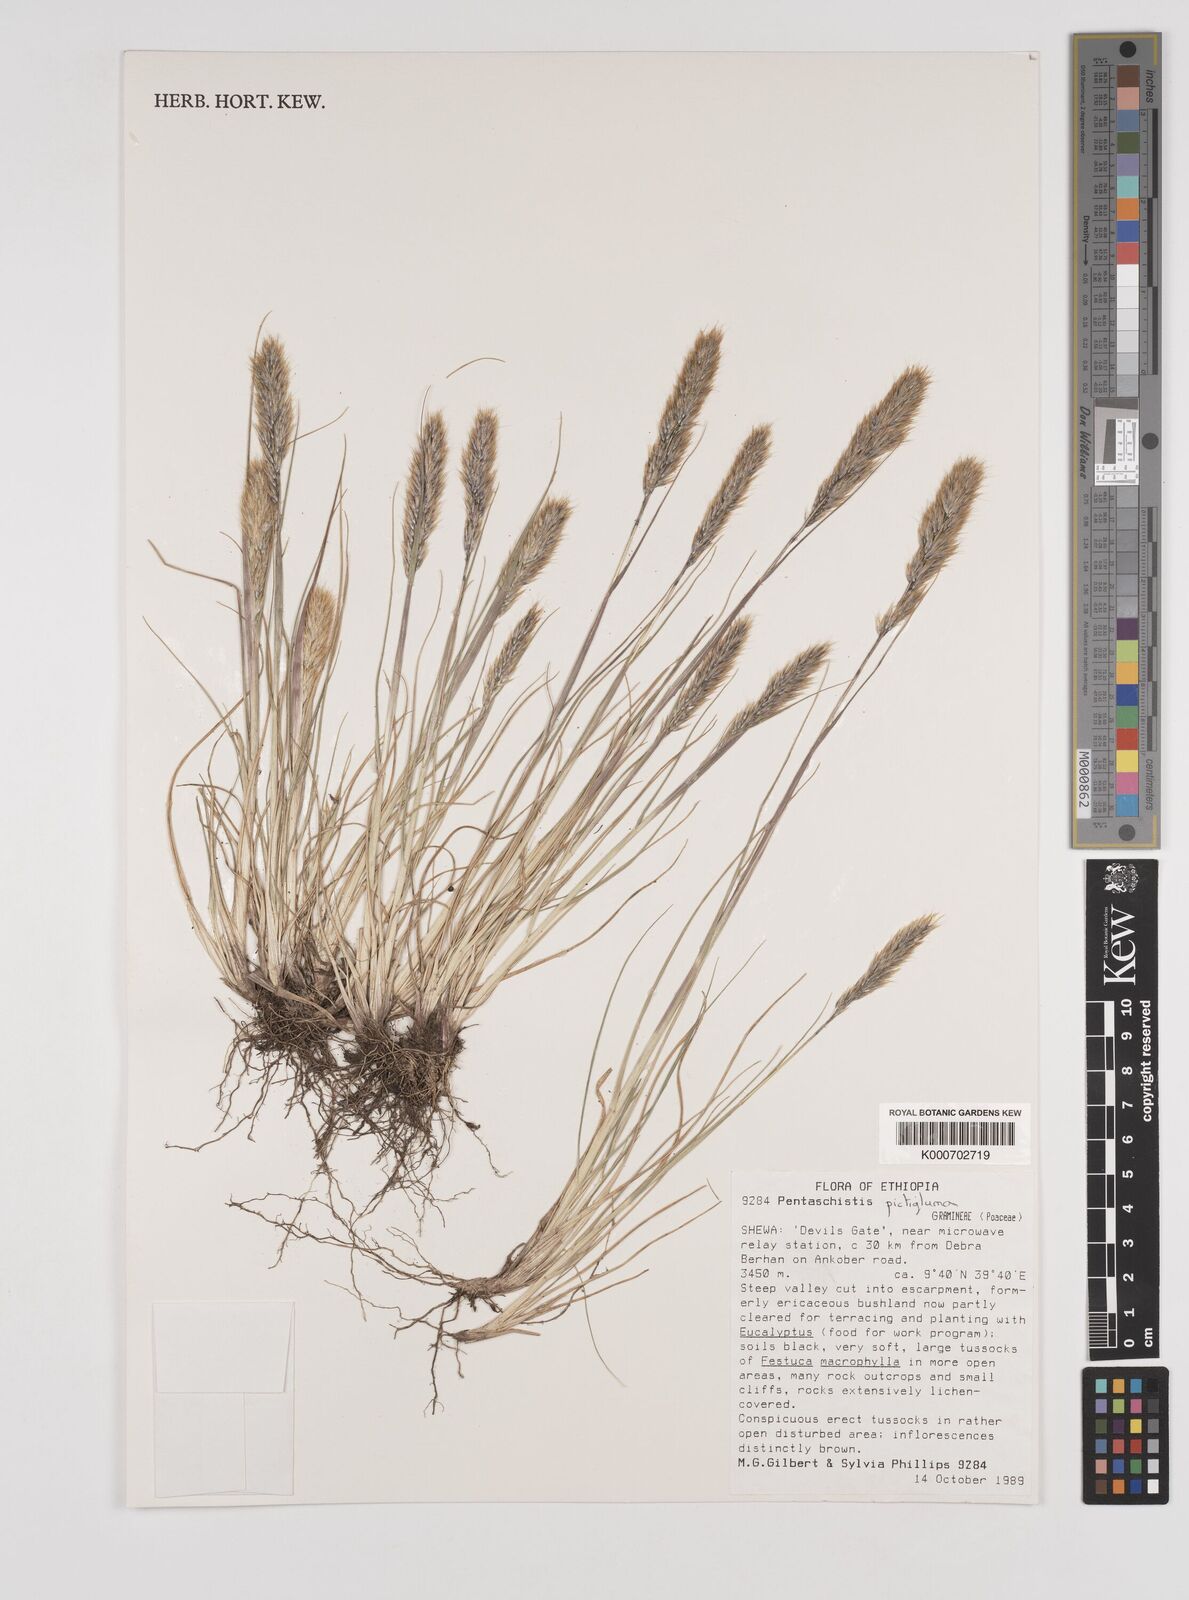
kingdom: Plantae
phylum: Tracheophyta
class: Liliopsida
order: Poales
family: Poaceae
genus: Pentameris
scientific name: Pentameris pictigluma
